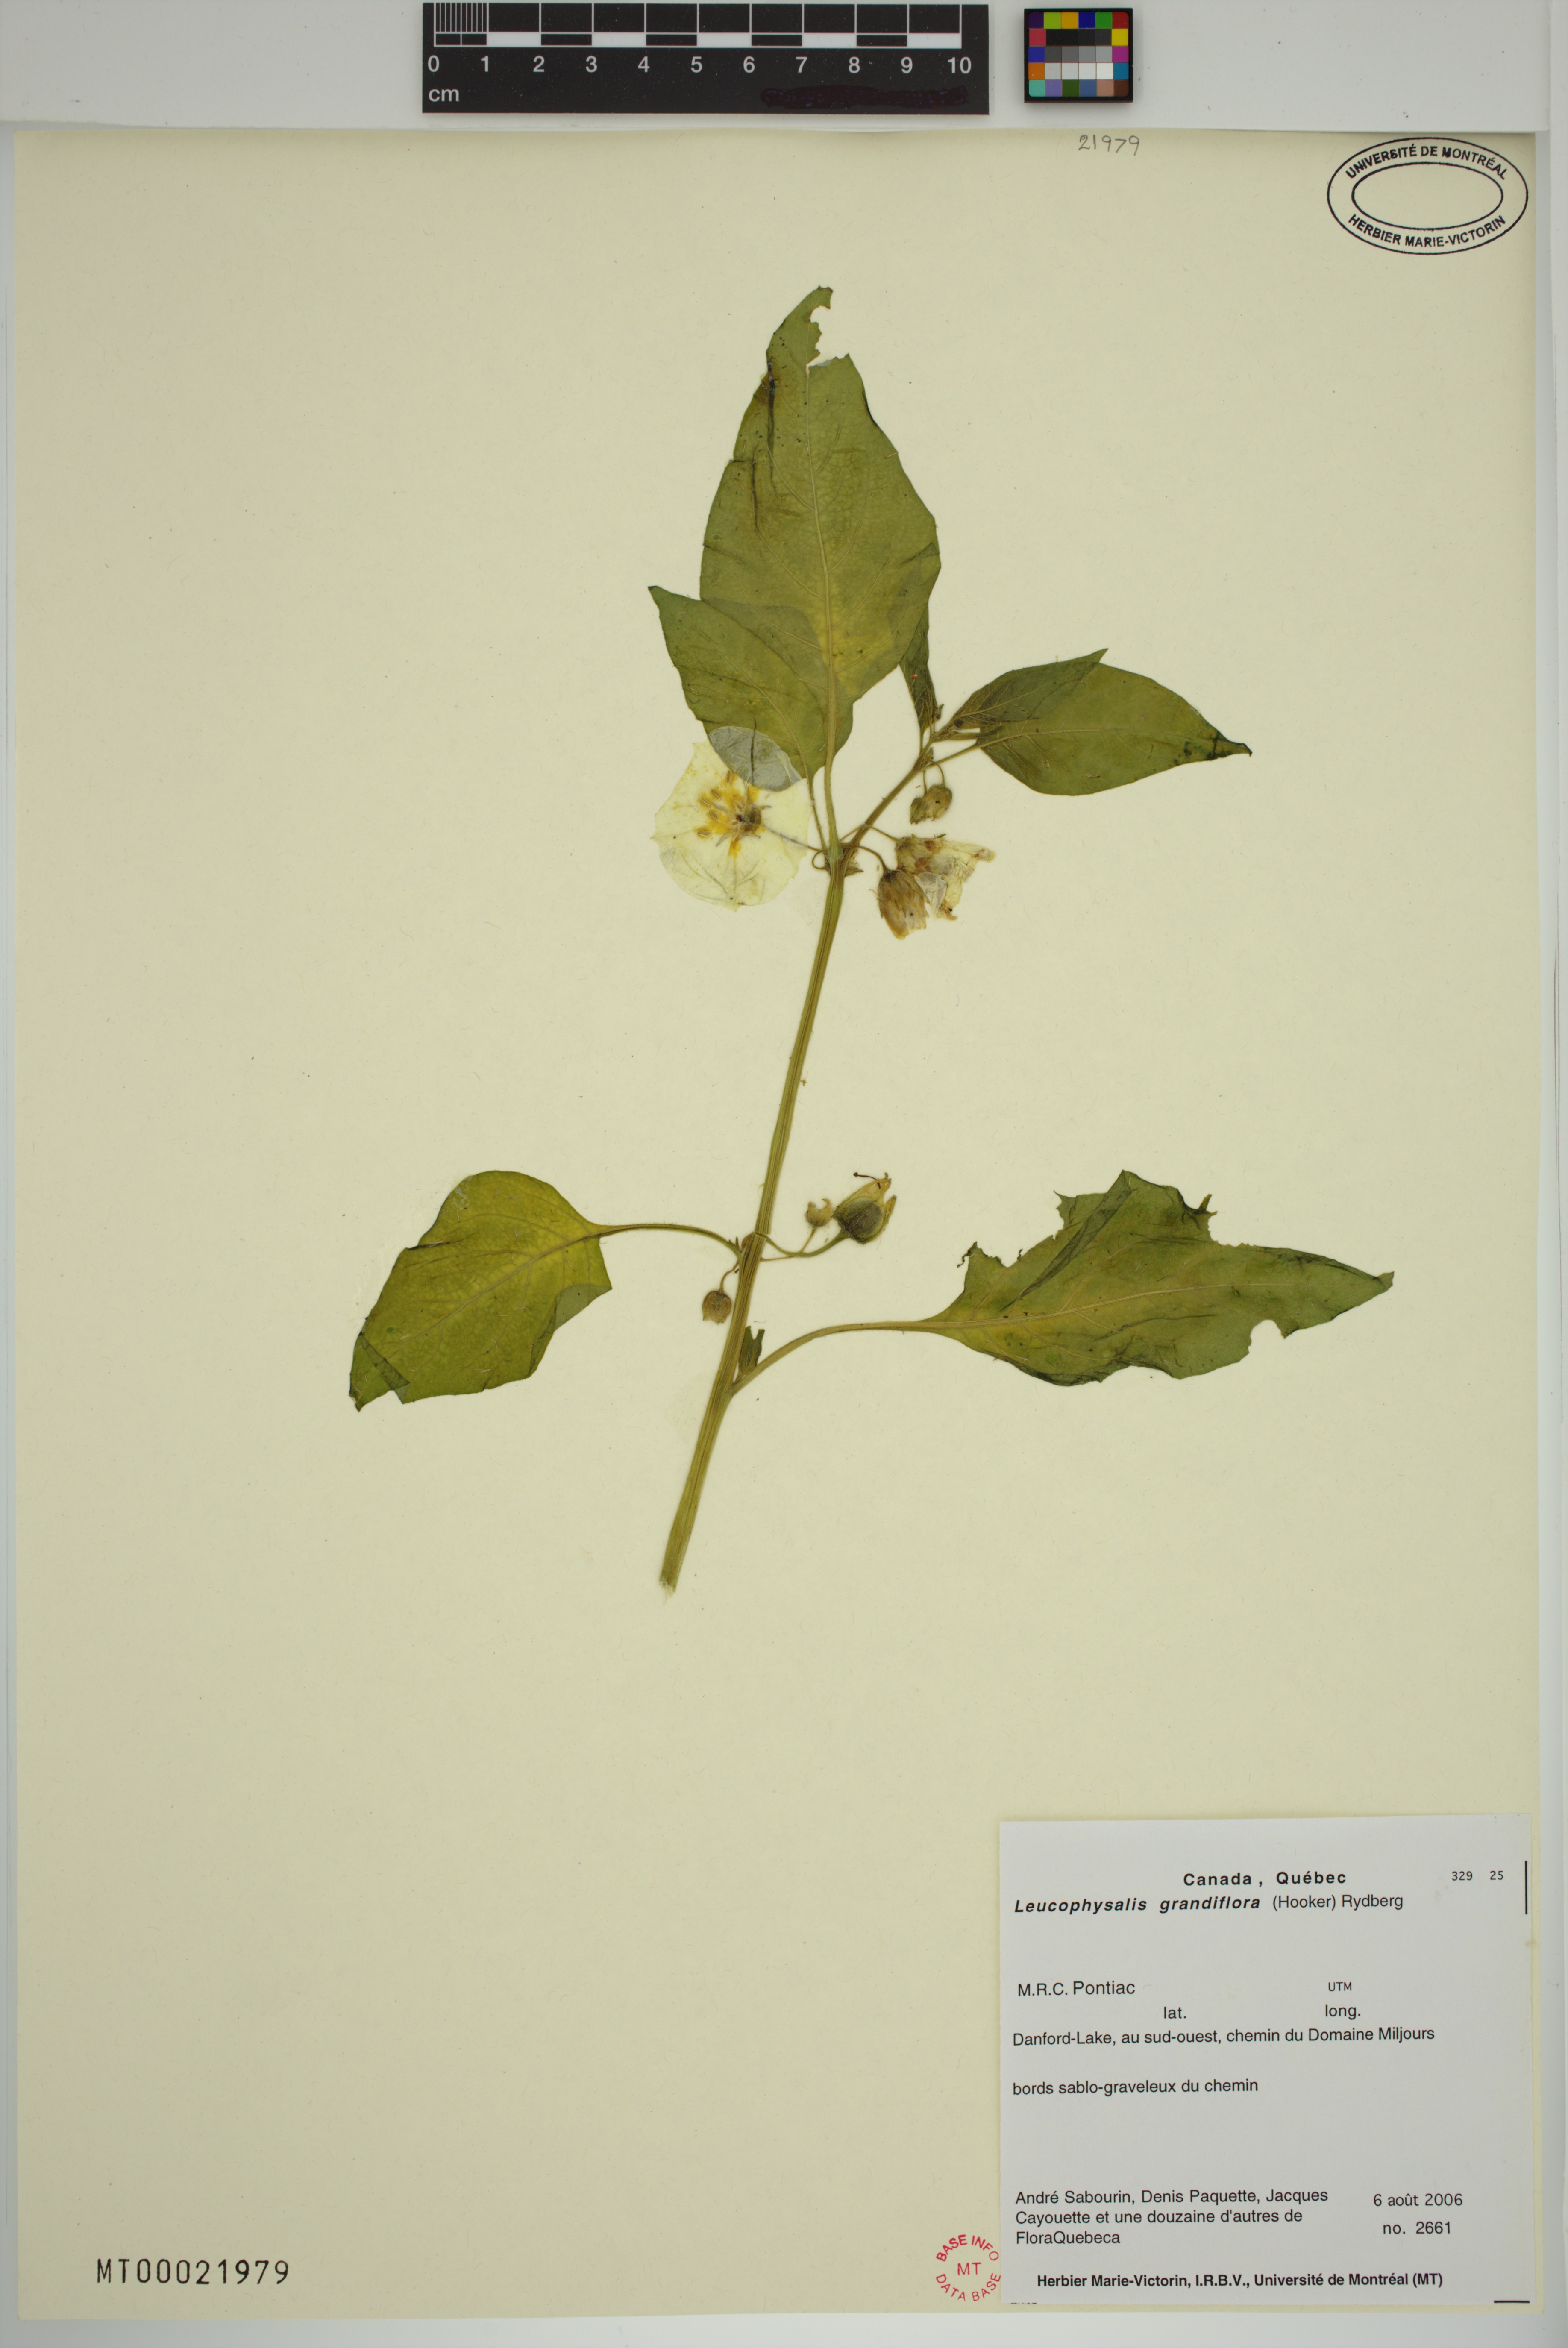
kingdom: Plantae
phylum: Tracheophyta
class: Magnoliopsida
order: Solanales
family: Solanaceae
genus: Leucophysalis
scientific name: Leucophysalis grandiflora
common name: Large false ground-cherry
